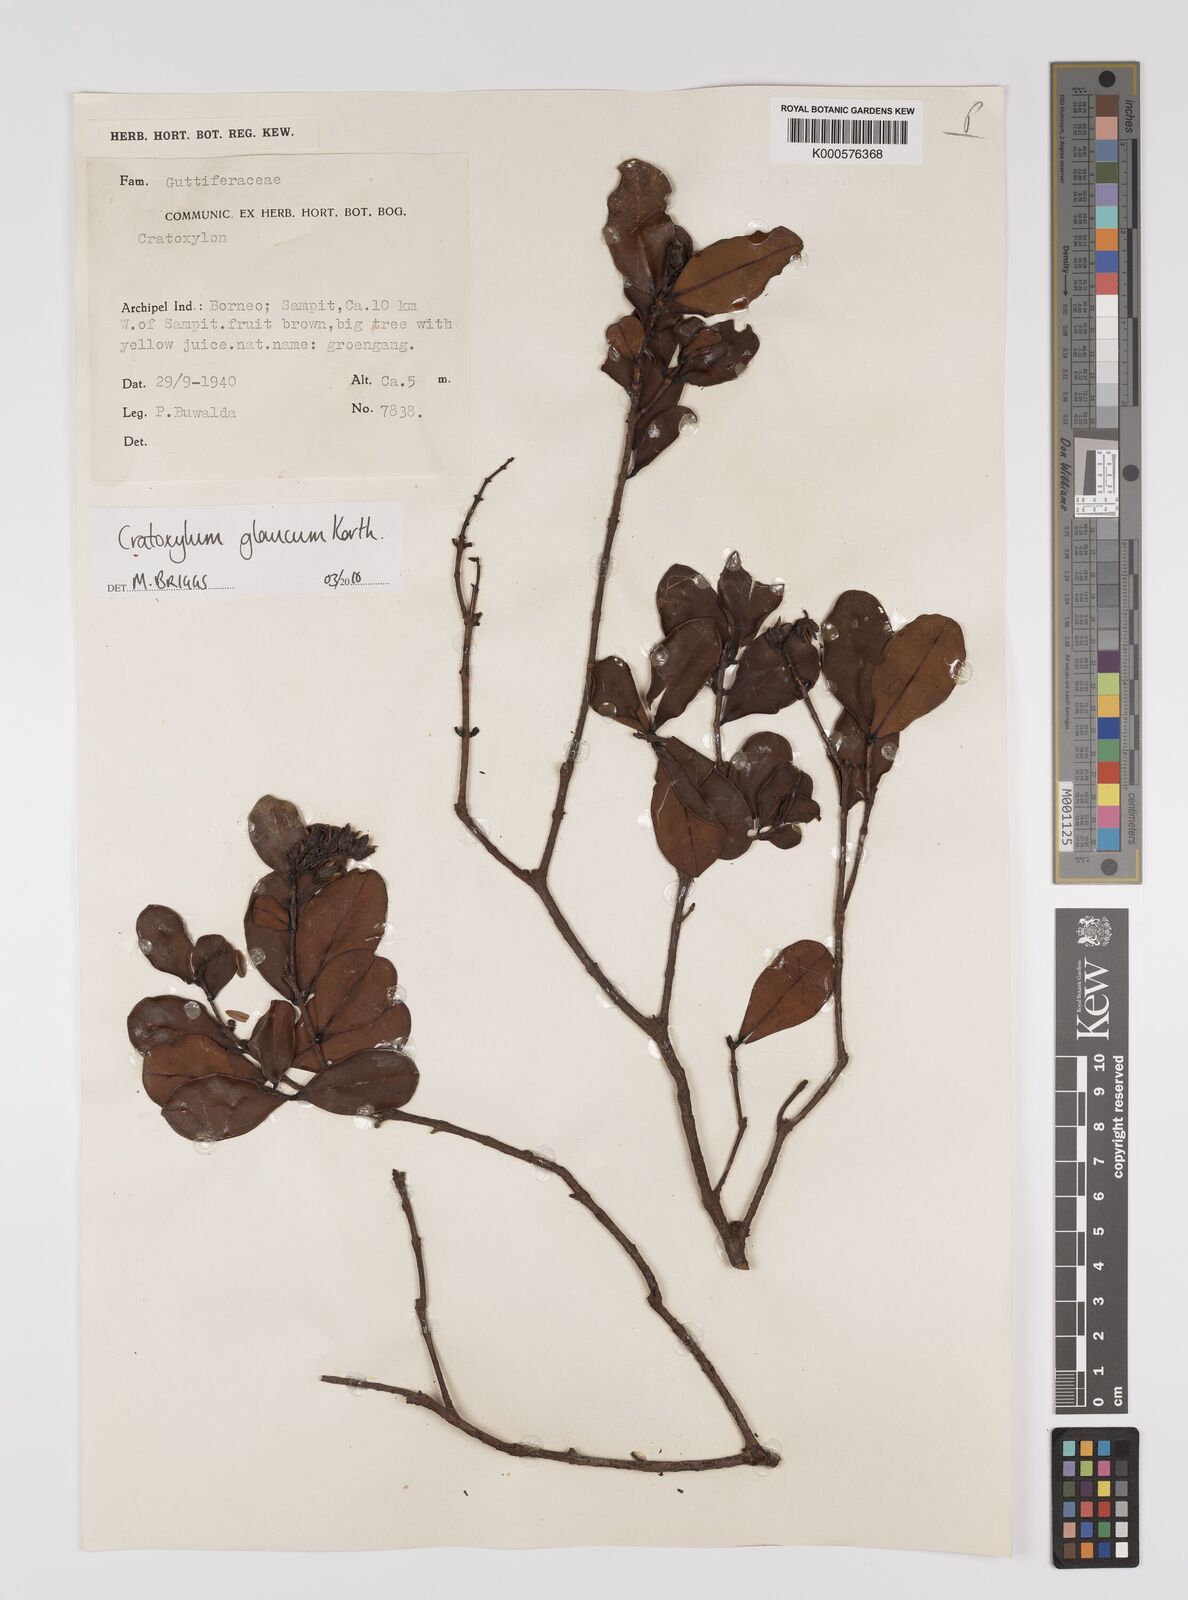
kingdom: Plantae
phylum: Tracheophyta
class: Magnoliopsida
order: Malpighiales
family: Hypericaceae
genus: Cratoxylum
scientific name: Cratoxylum glaucum
